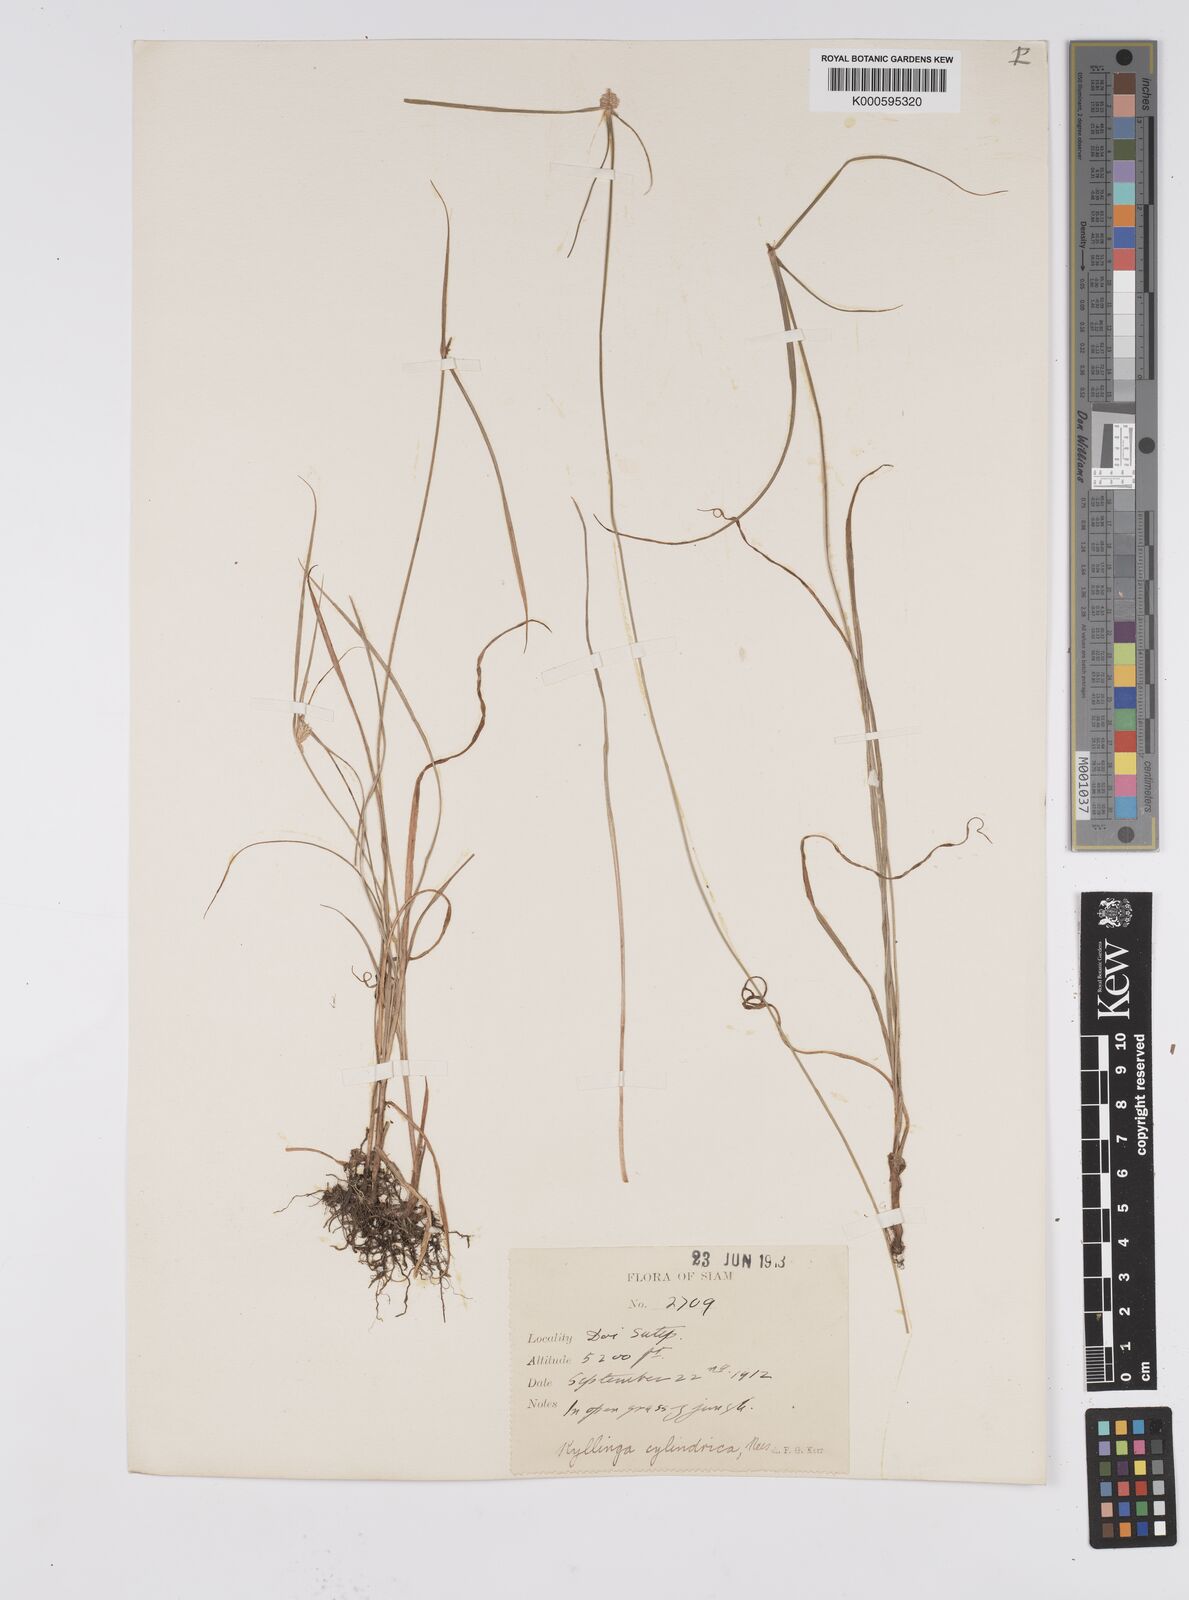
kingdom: Plantae
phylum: Tracheophyta
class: Liliopsida
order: Poales
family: Cyperaceae
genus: Cyperus
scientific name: Cyperus sesquiflorus
